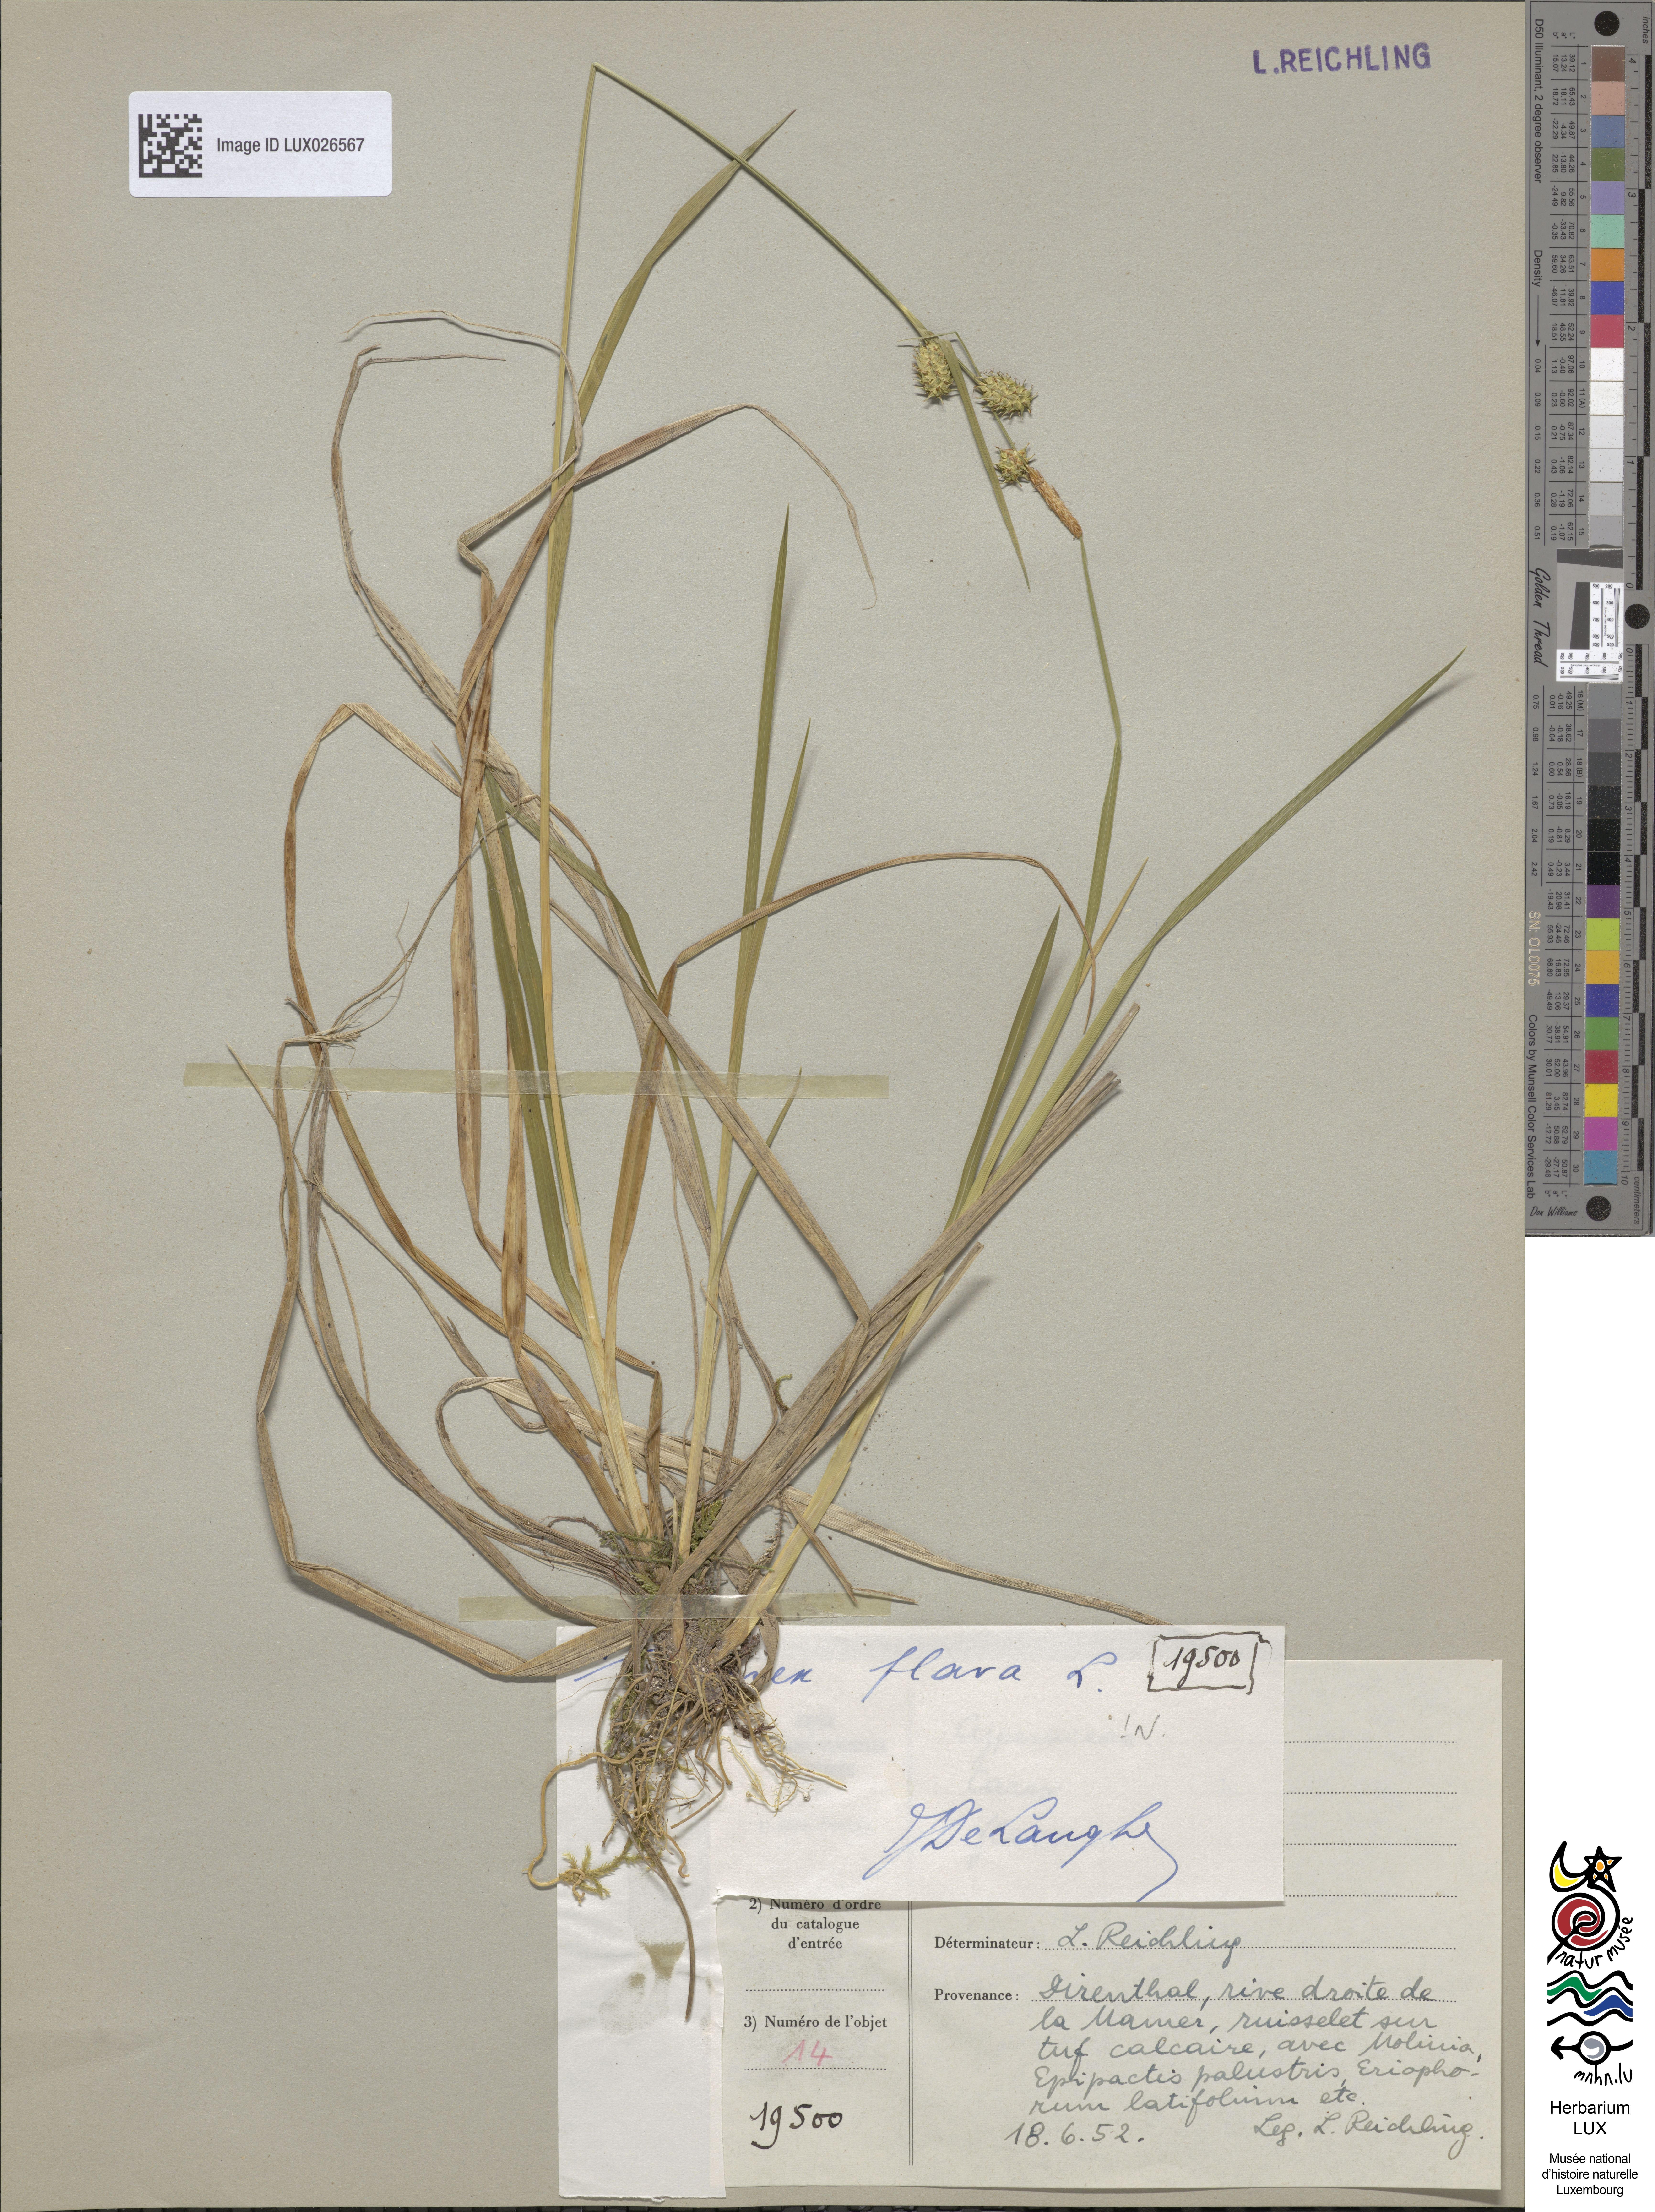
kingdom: Plantae
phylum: Tracheophyta
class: Liliopsida
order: Poales
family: Cyperaceae
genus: Carex
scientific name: Carex flava
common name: Large yellow-sedge
